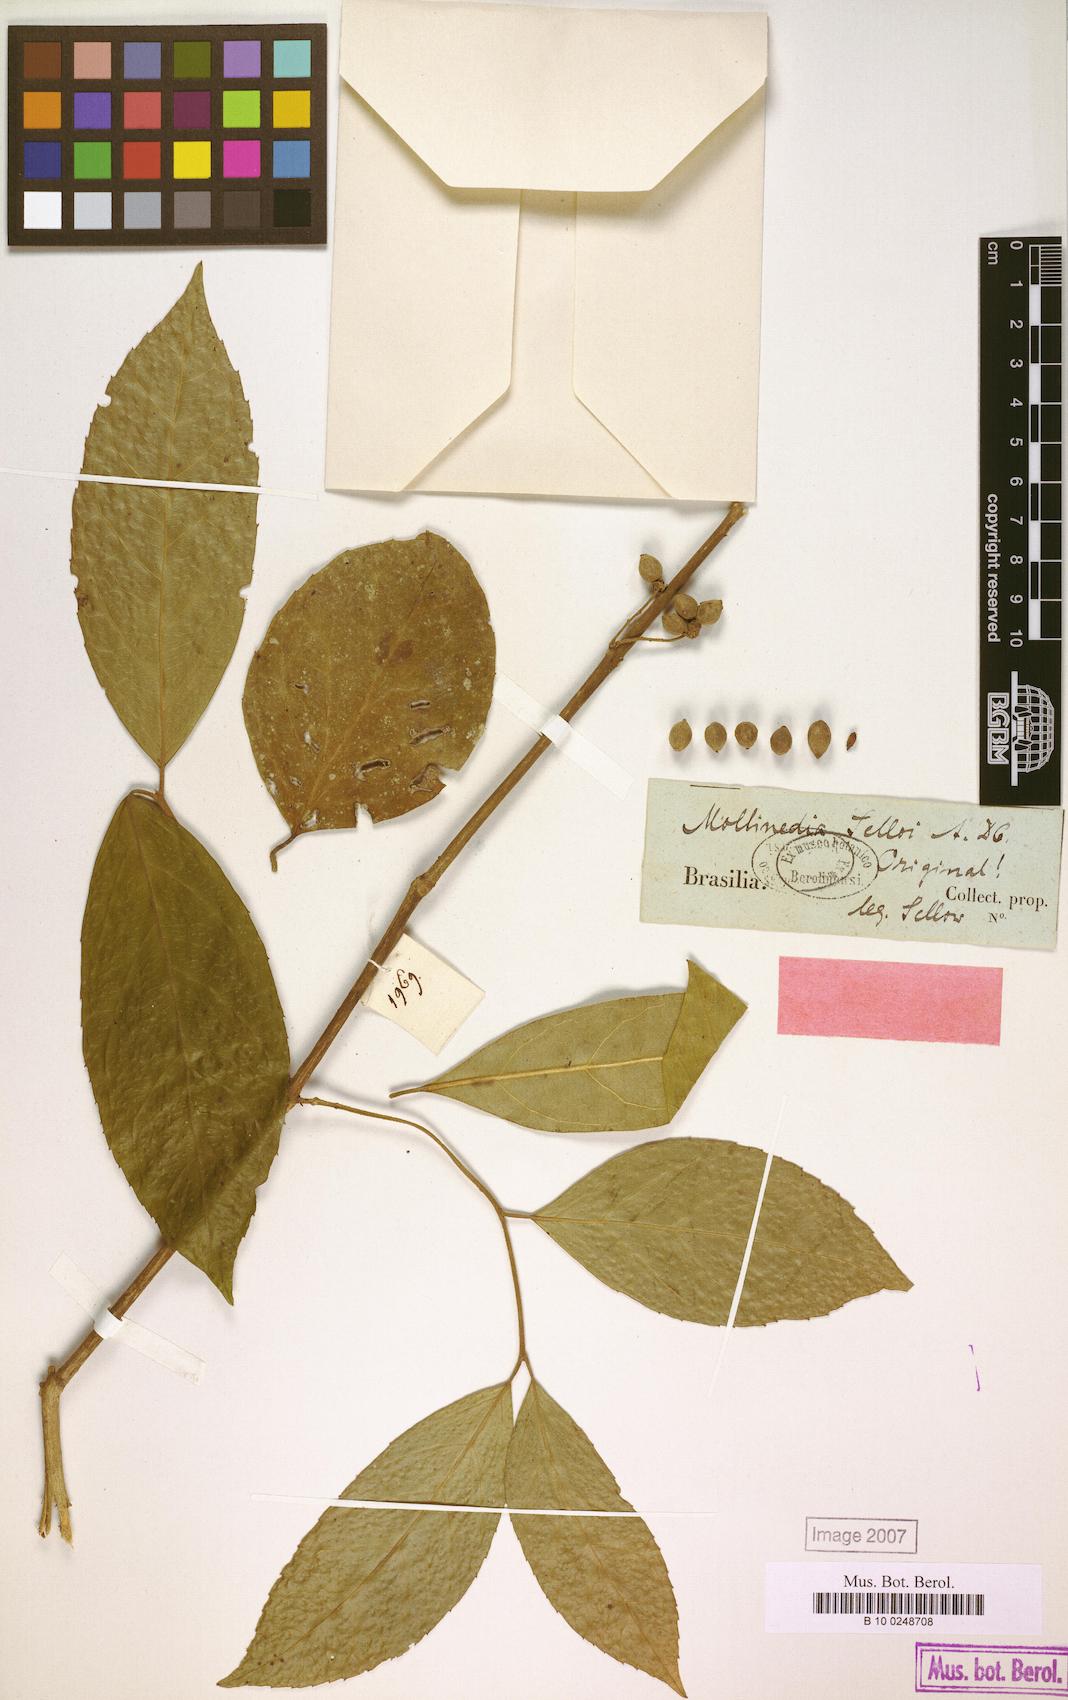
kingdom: Plantae
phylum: Tracheophyta
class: Magnoliopsida
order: Laurales
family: Monimiaceae
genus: Mollinedia
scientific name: Mollinedia ovata
